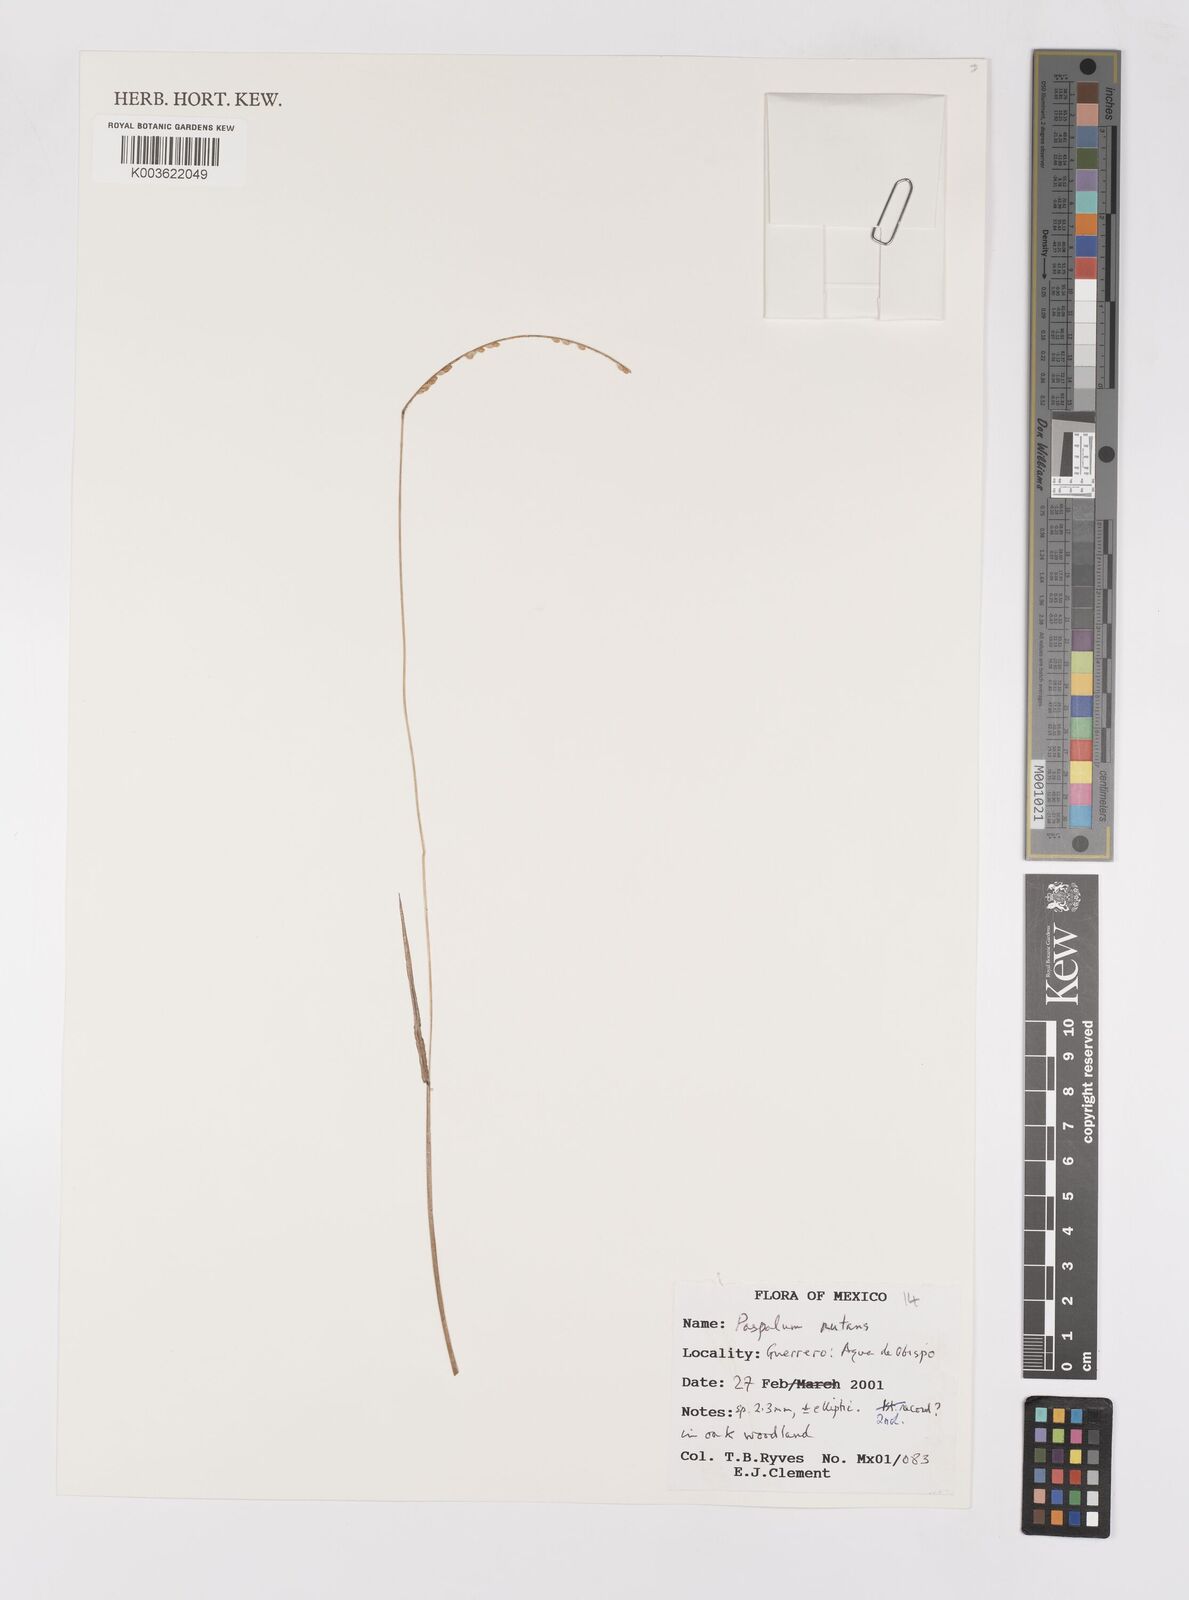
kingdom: Plantae
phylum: Tracheophyta
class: Liliopsida
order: Poales
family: Poaceae
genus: Paspalum
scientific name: Paspalum nutans
